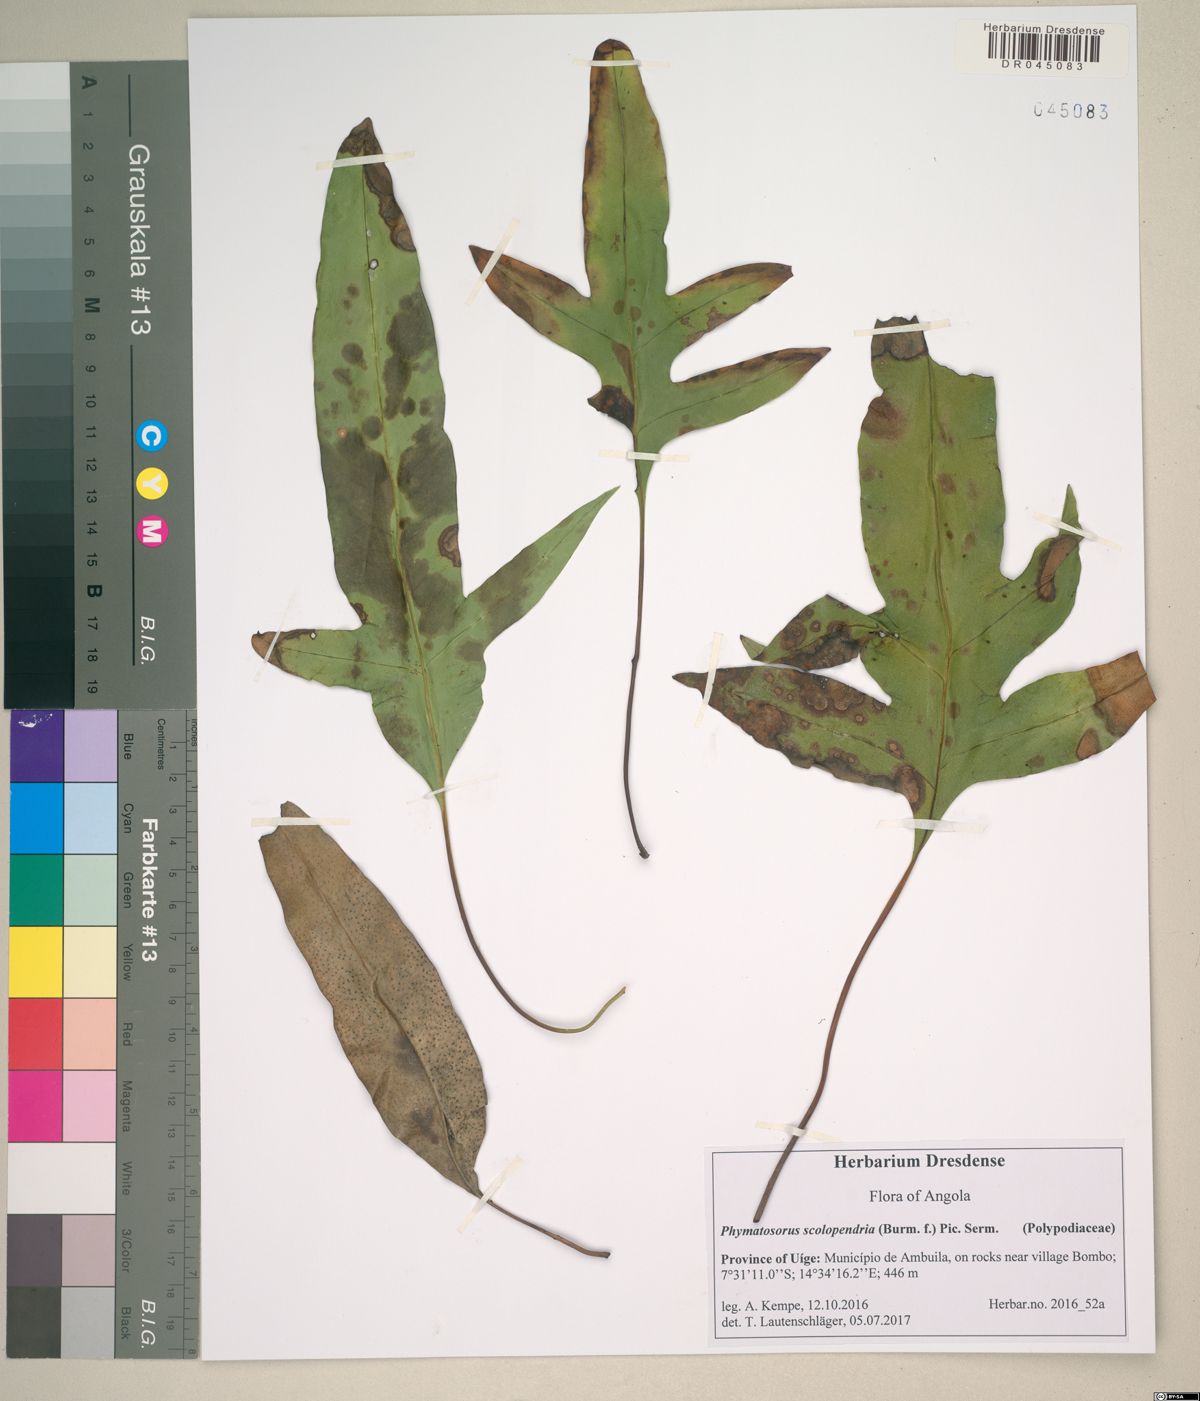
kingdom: Plantae
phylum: Tracheophyta
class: Polypodiopsida
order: Polypodiales
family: Polypodiaceae
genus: Microsorum
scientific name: Microsorum scolopendria
